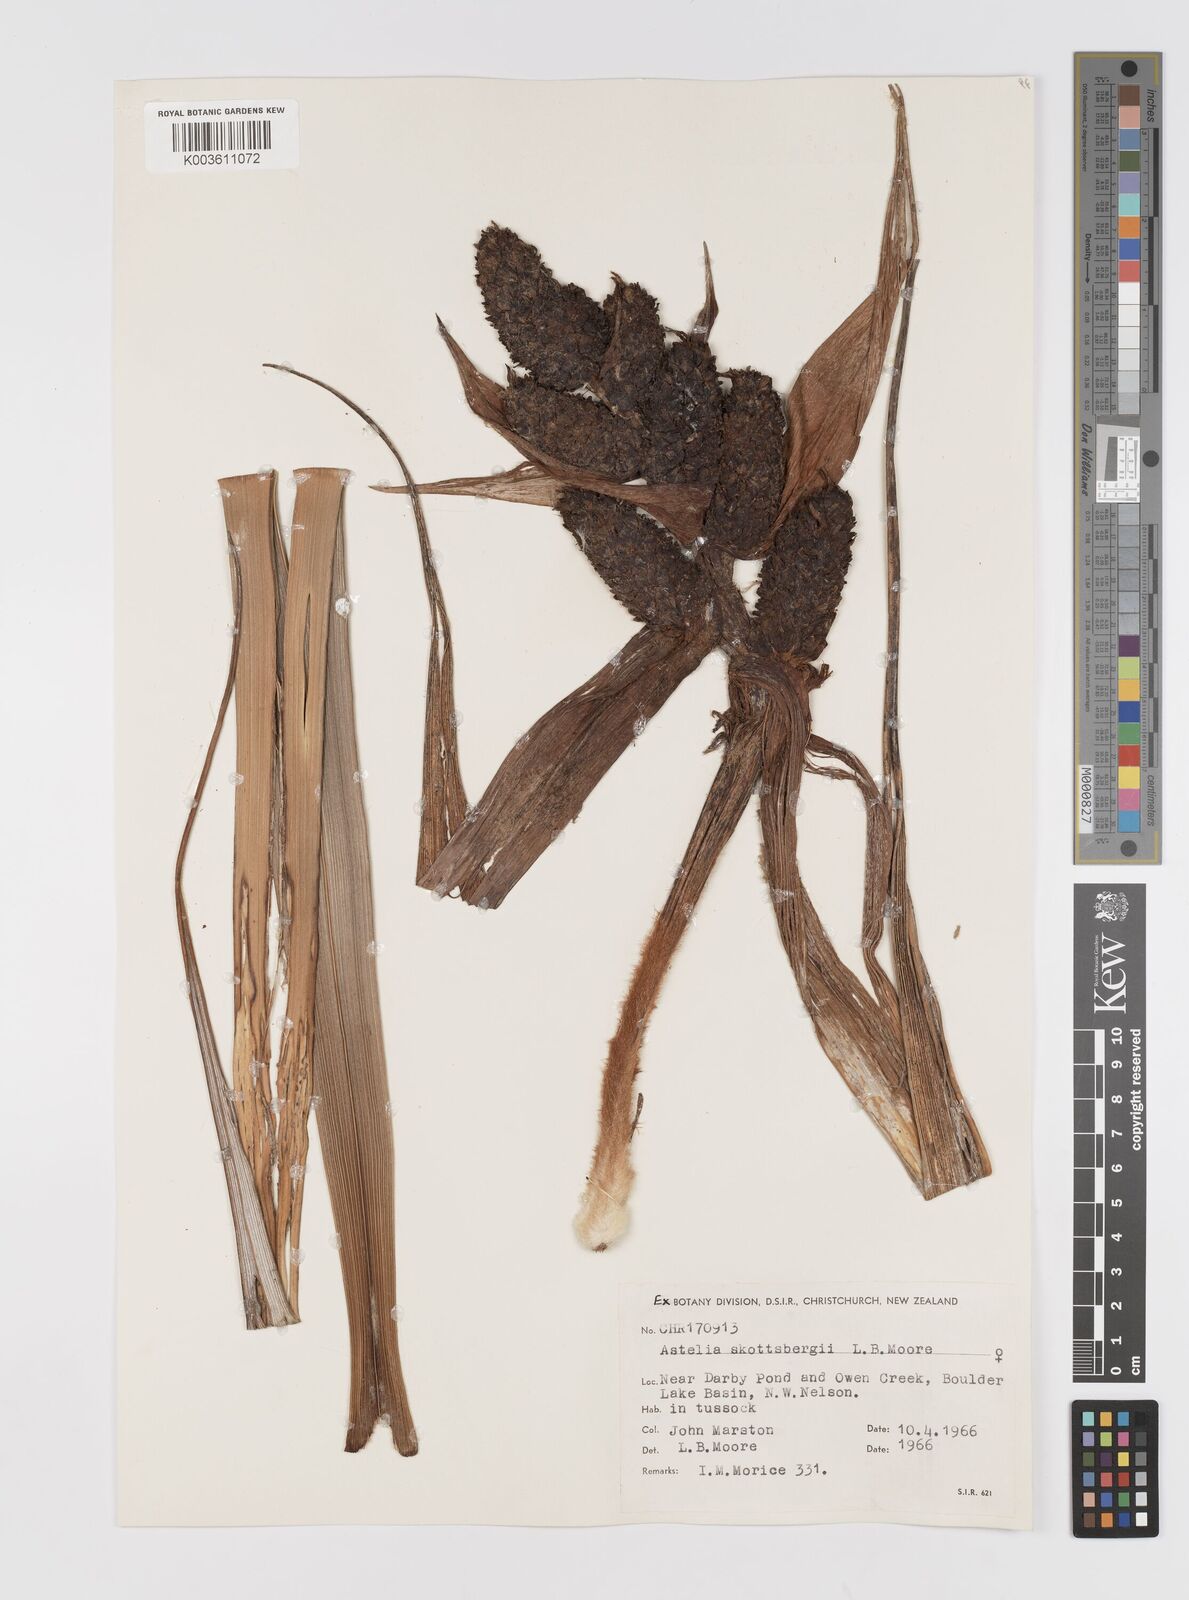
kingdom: Plantae
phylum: Tracheophyta
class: Liliopsida
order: Asparagales
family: Asteliaceae
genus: Astelia
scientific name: Astelia skottsbergii
